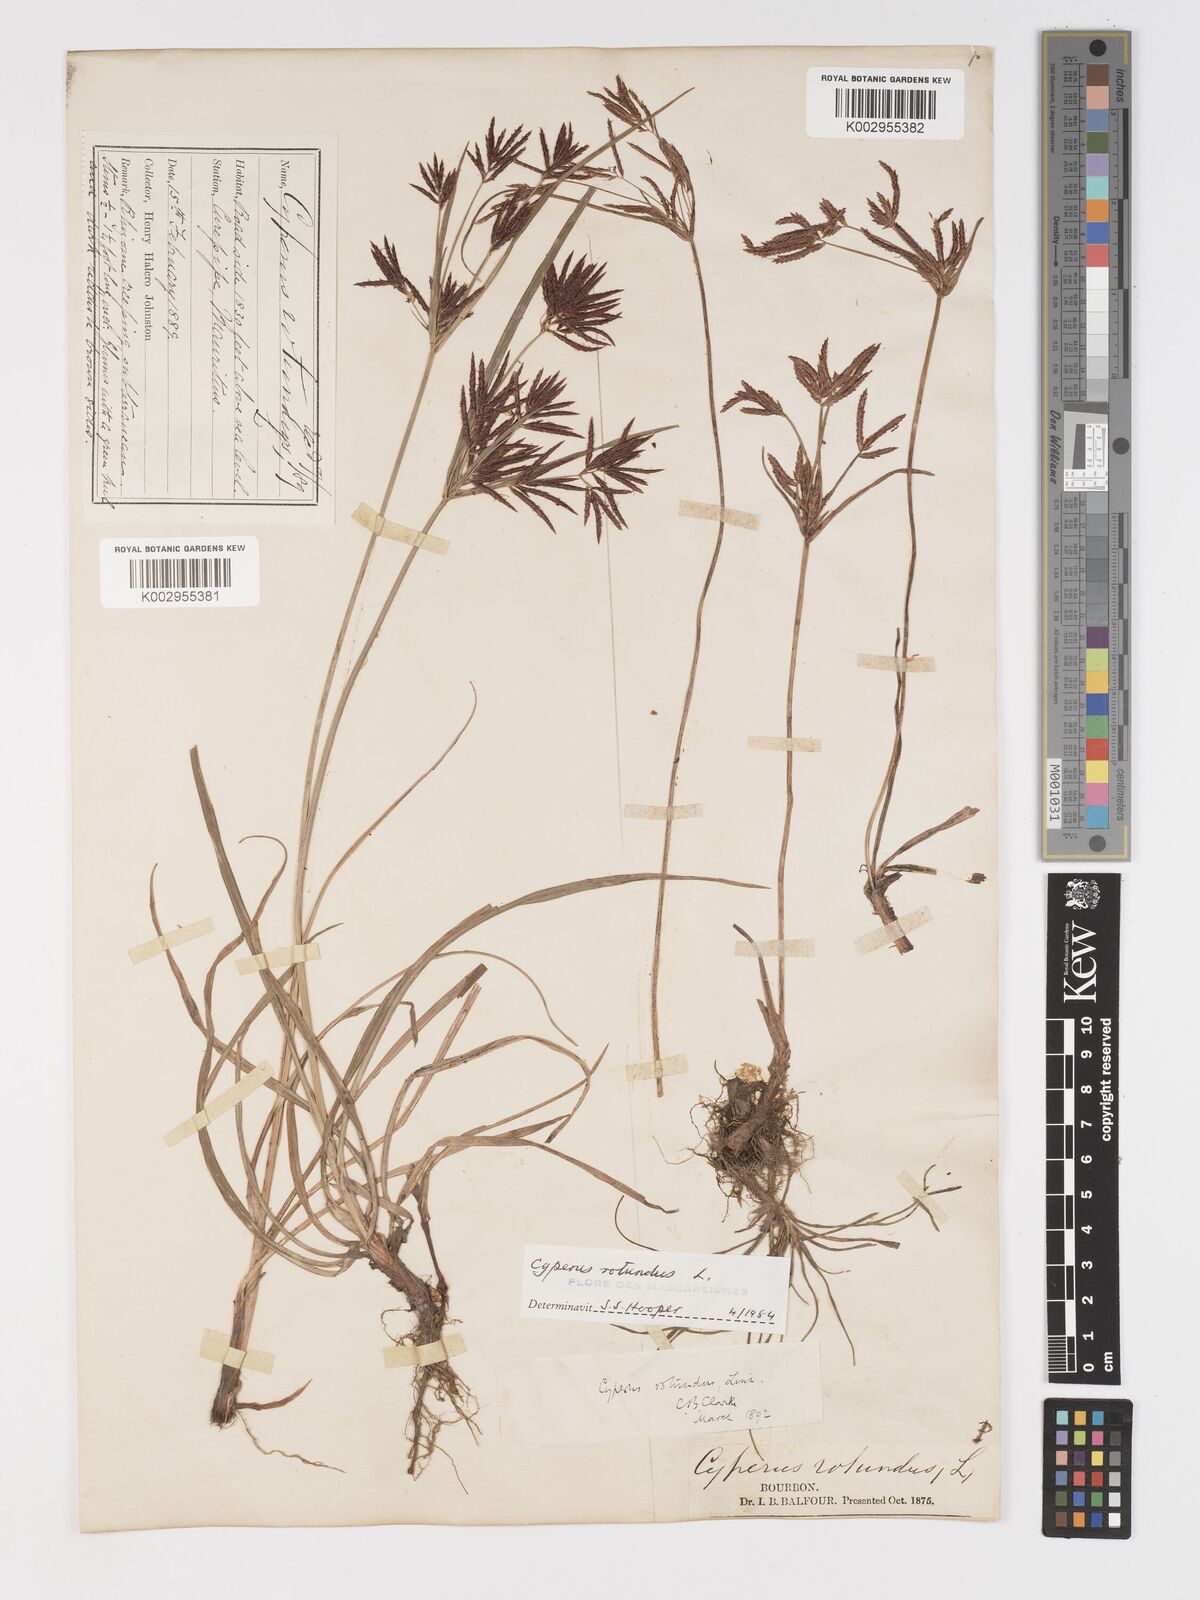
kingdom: Plantae
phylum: Tracheophyta
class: Liliopsida
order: Poales
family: Cyperaceae
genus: Cyperus
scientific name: Cyperus rotundus
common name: Nutgrass
